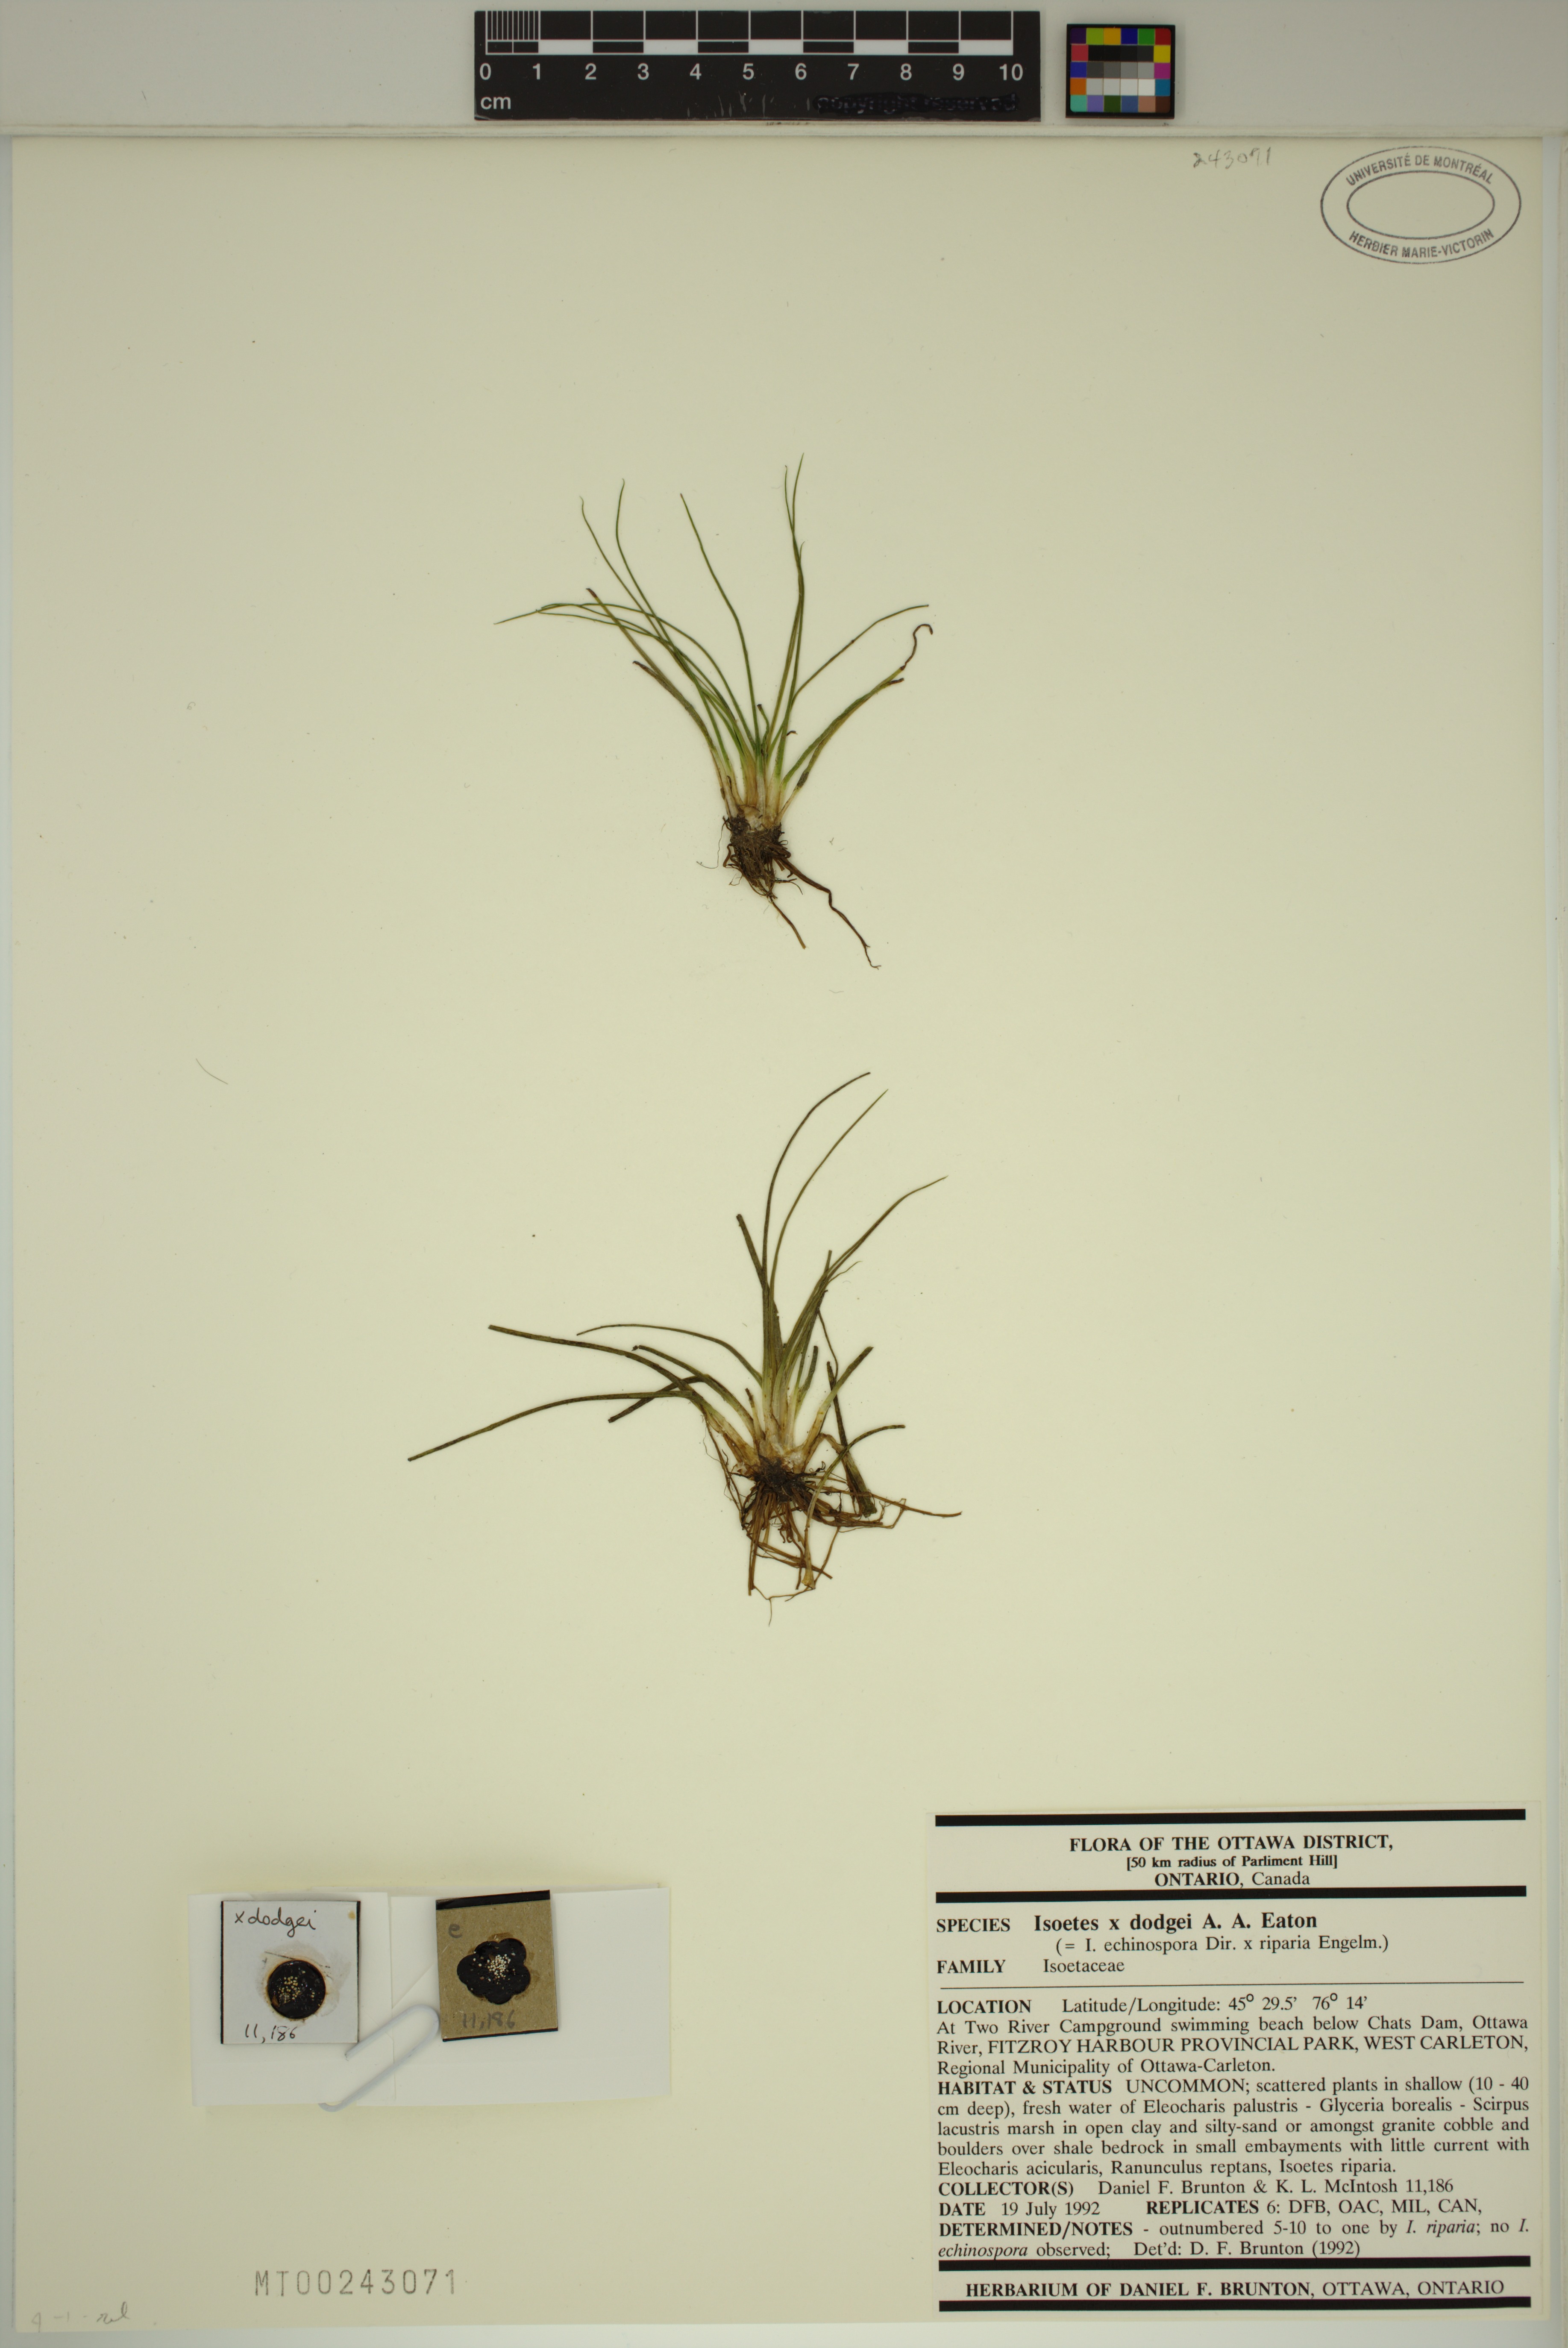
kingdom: Plantae
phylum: Tracheophyta
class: Lycopodiopsida
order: Isoetales
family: Isoetaceae
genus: Isoetes
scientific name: Isoetes robusta
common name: Robust quillwort
